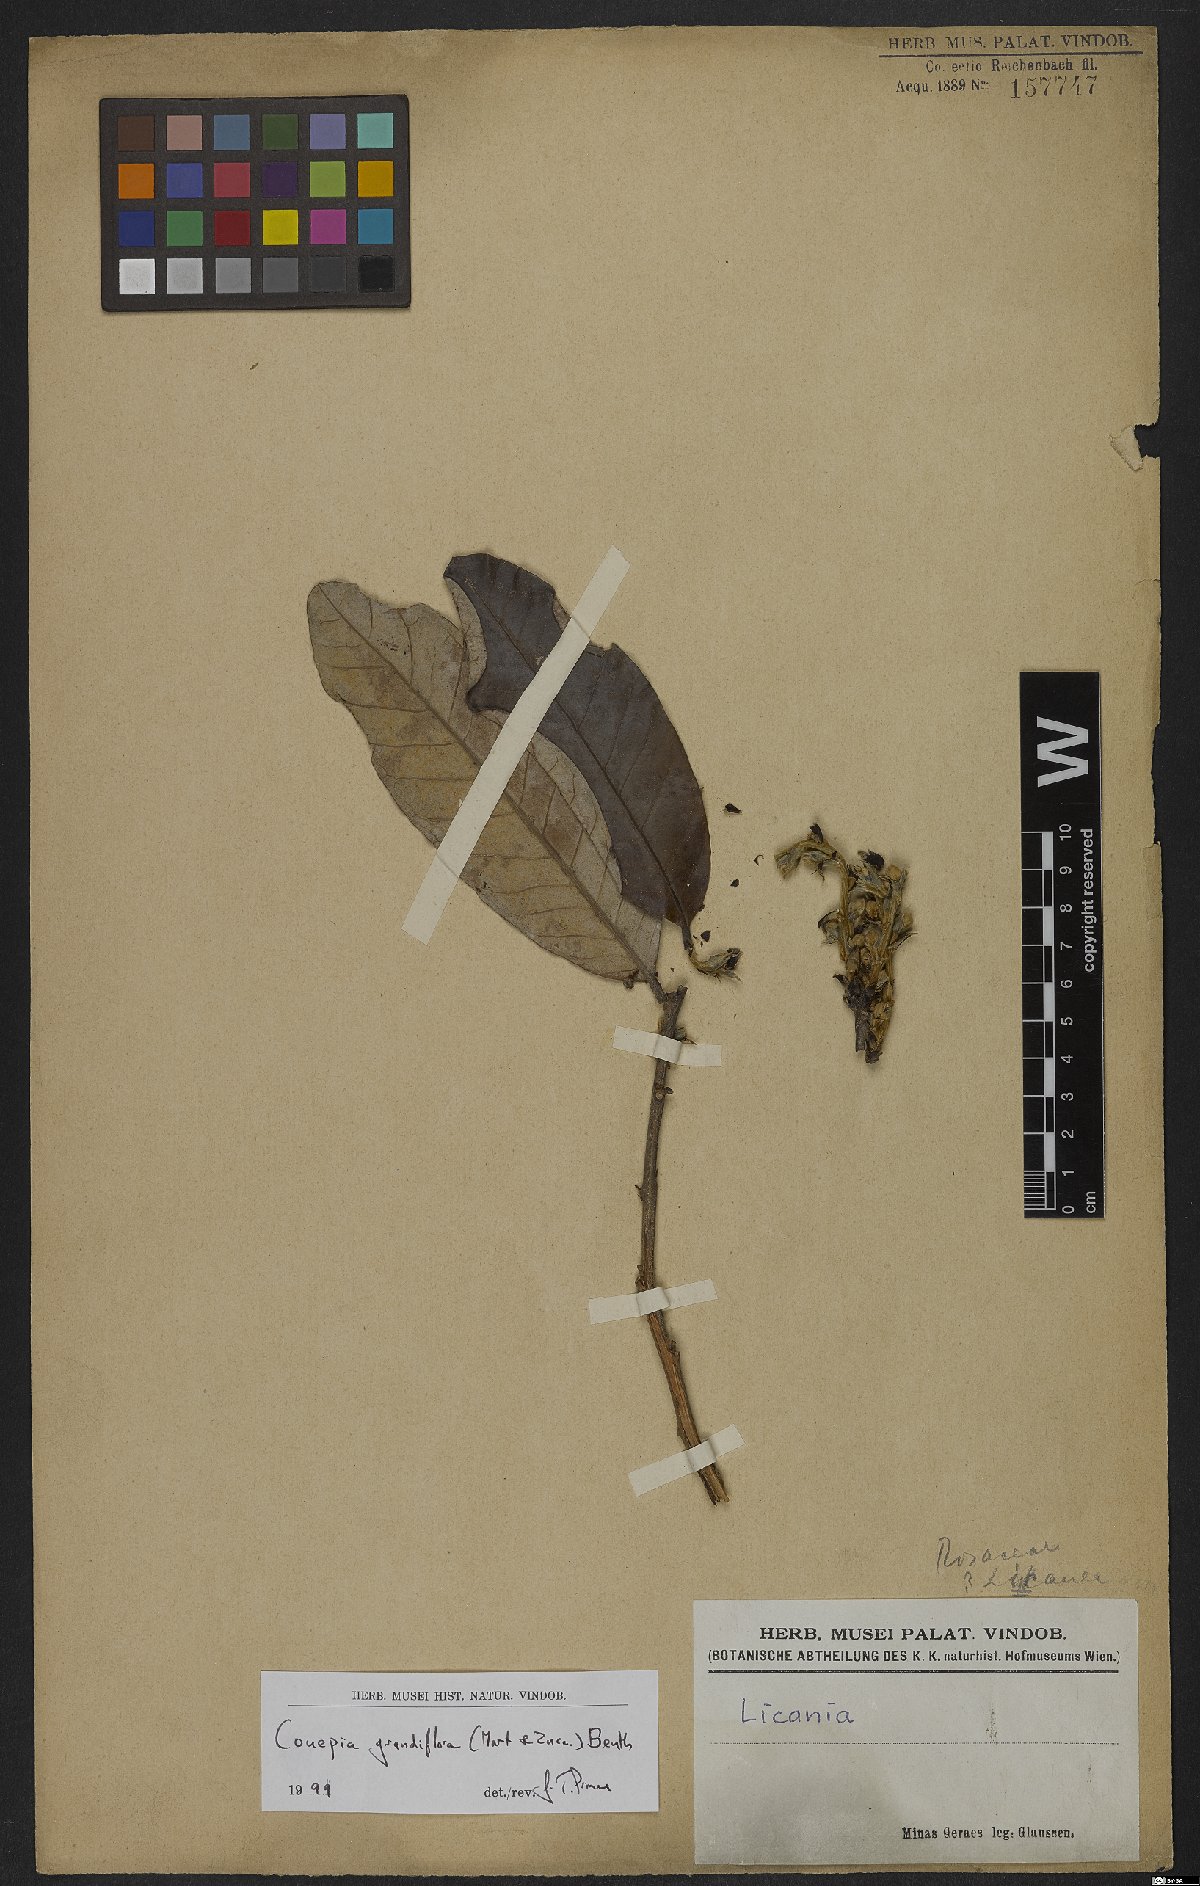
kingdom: Plantae
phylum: Tracheophyta
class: Magnoliopsida
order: Malpighiales
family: Chrysobalanaceae
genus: Couepia
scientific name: Couepia grandiflora
